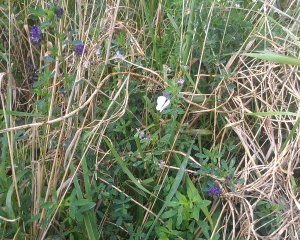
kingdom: Animalia
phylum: Arthropoda
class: Insecta
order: Lepidoptera
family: Pieridae
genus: Pieris
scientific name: Pieris oleracea
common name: Mustard White
